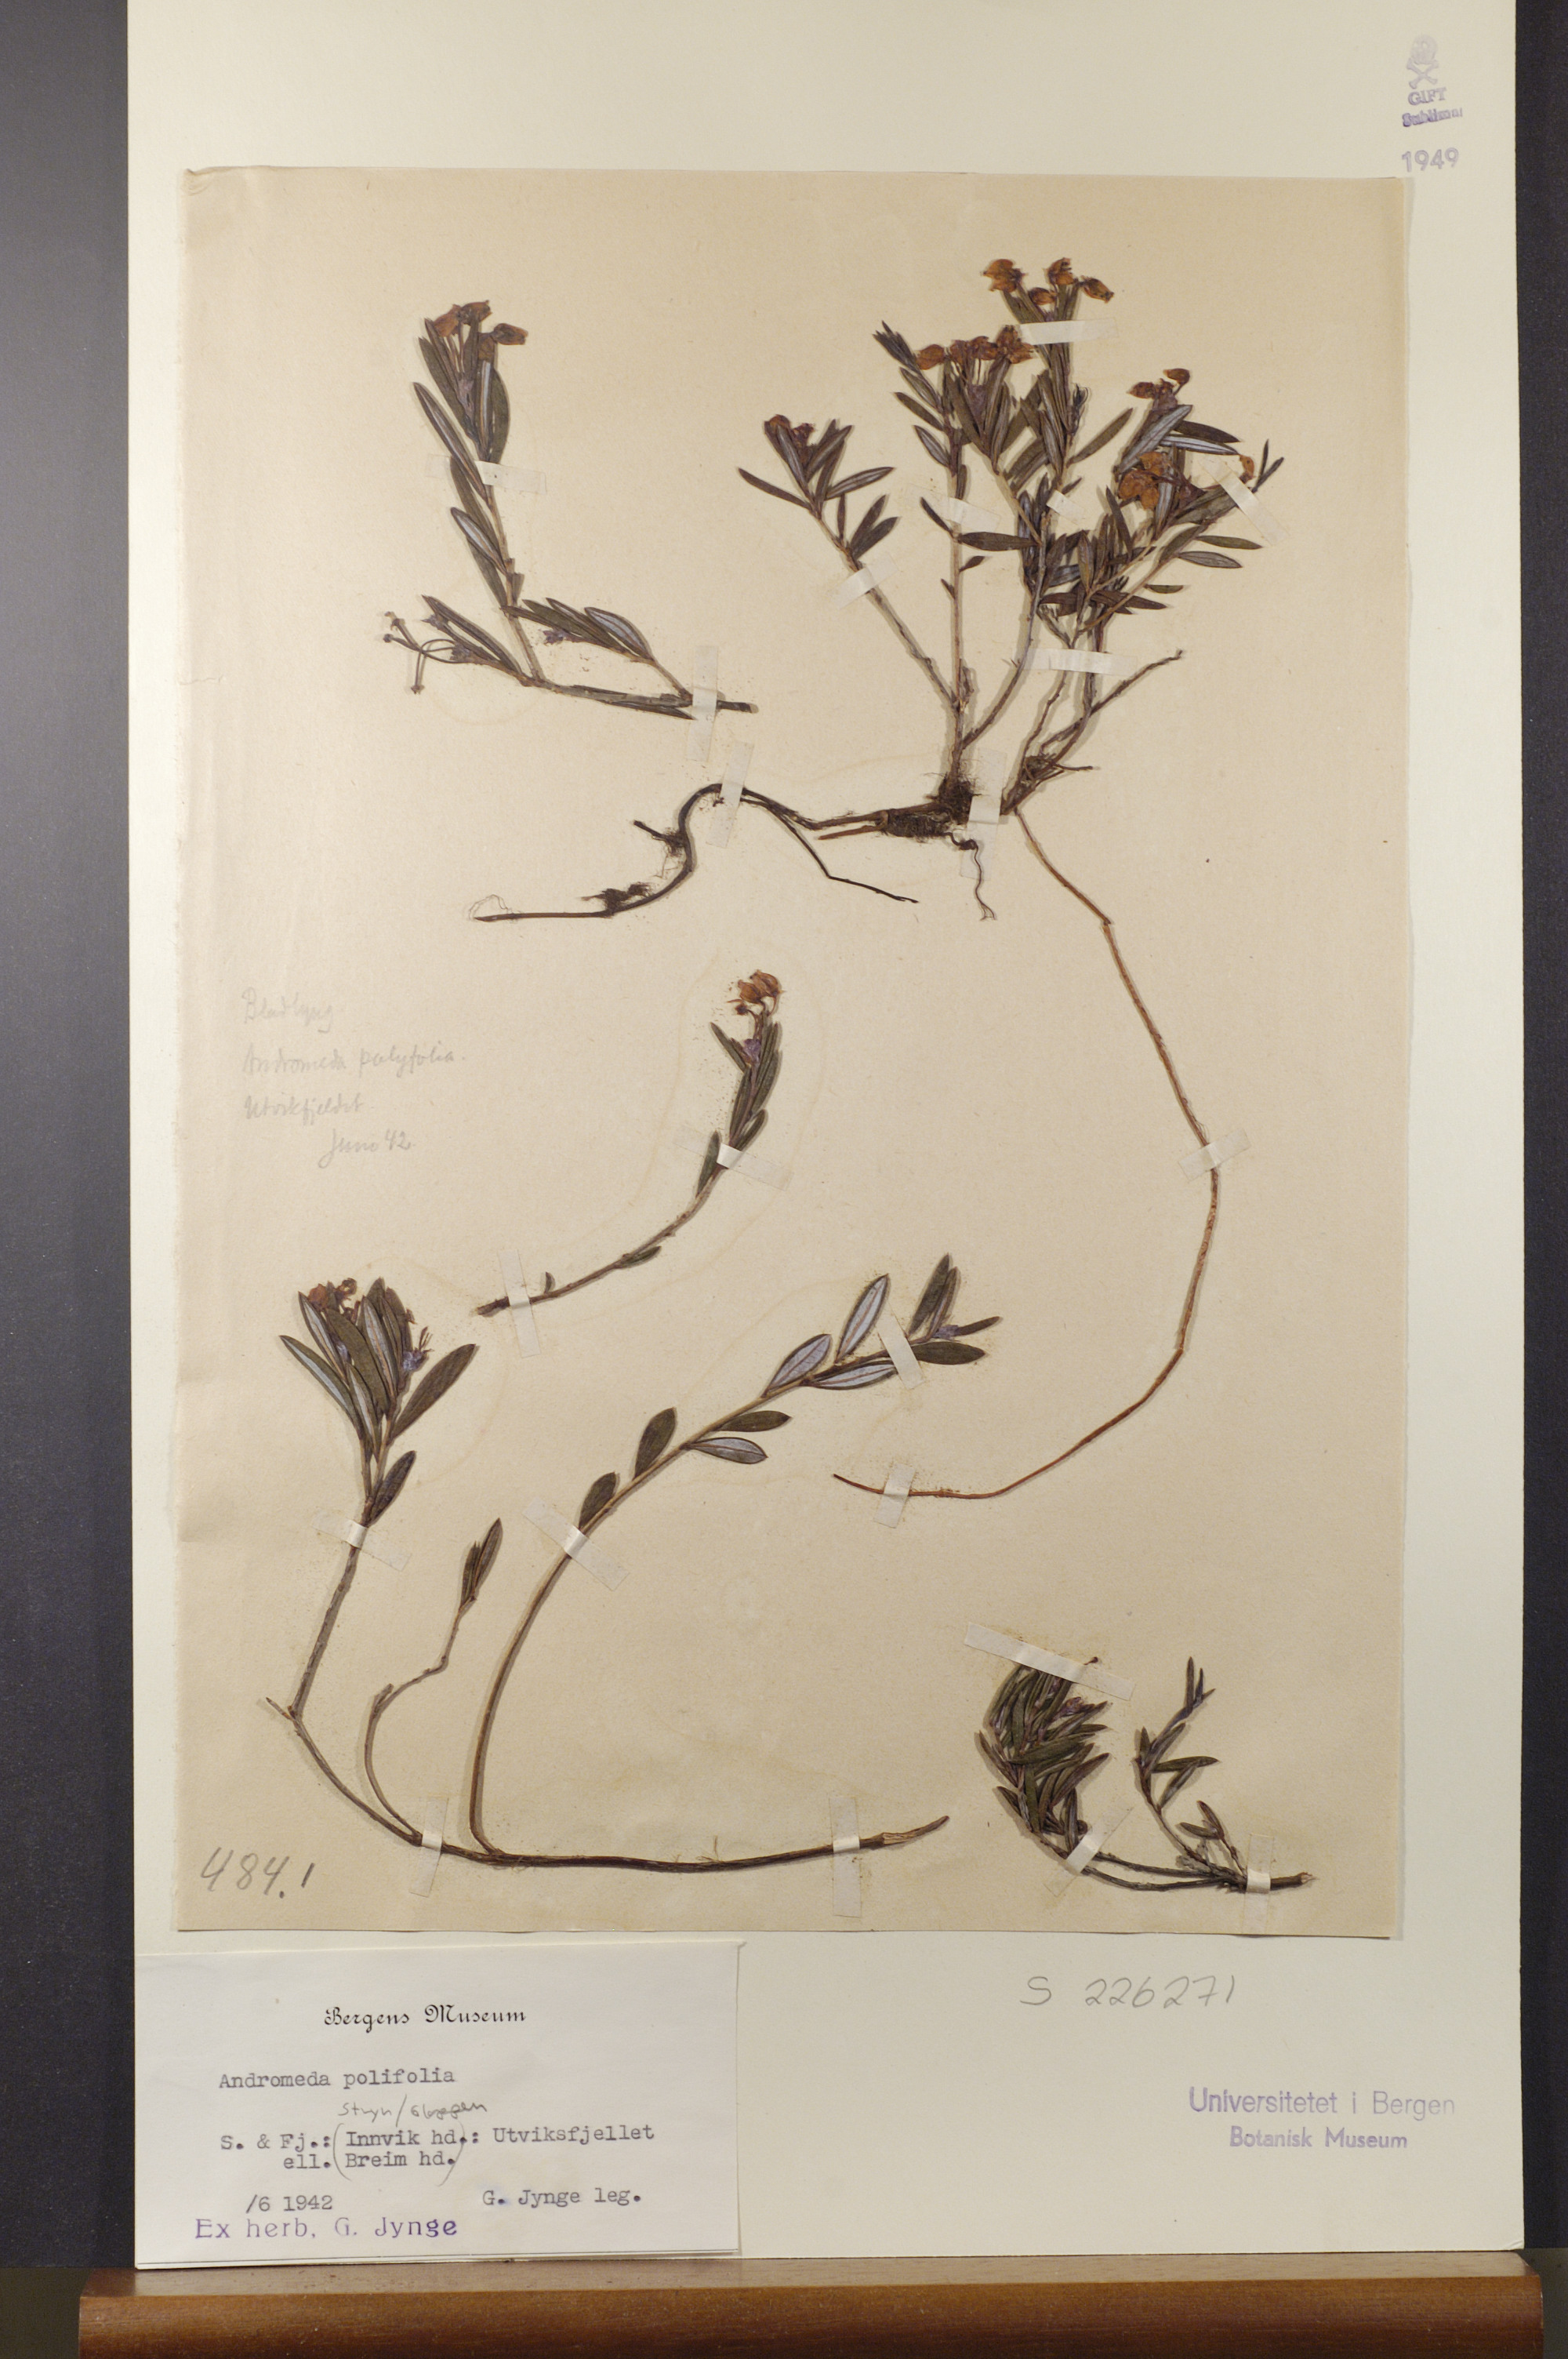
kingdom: Plantae
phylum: Tracheophyta
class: Magnoliopsida
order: Ericales
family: Ericaceae
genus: Andromeda
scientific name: Andromeda polifolia
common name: Bog-rosemary
